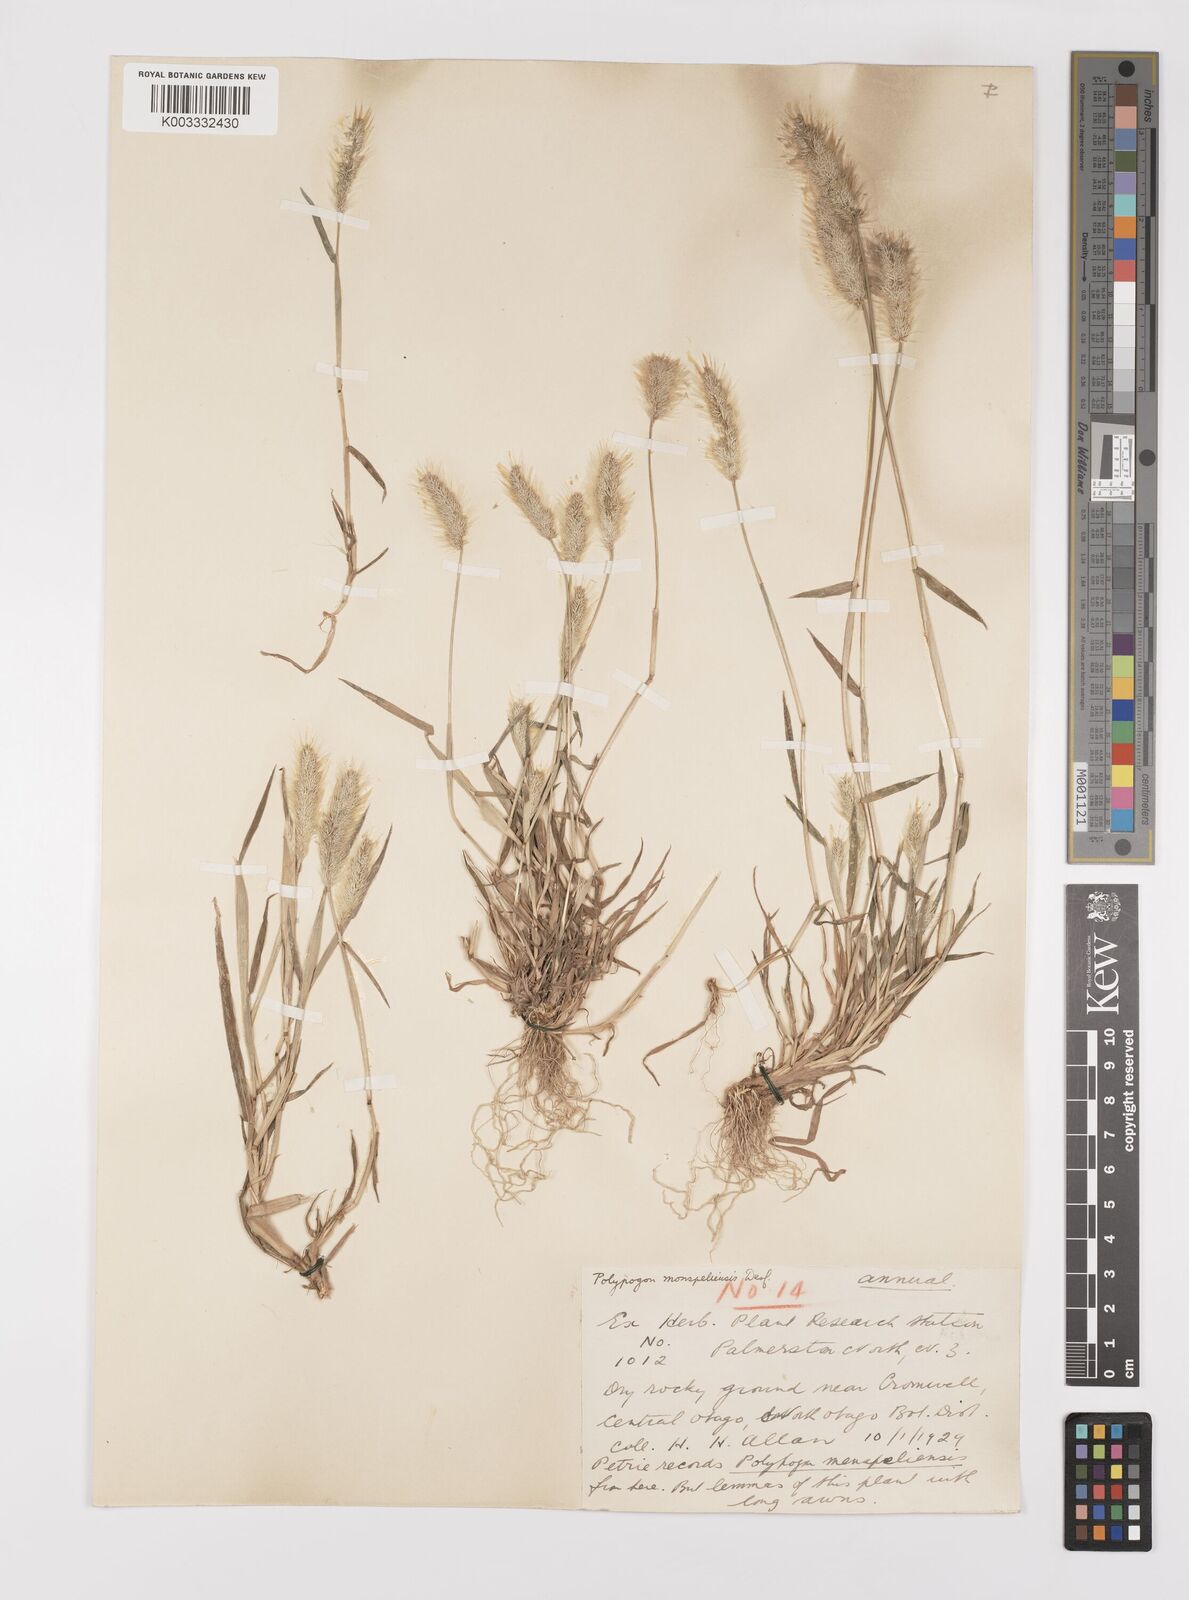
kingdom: Plantae
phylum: Tracheophyta
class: Liliopsida
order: Poales
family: Poaceae
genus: Polypogon
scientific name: Polypogon monspeliensis
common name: Annual rabbitsfoot grass
